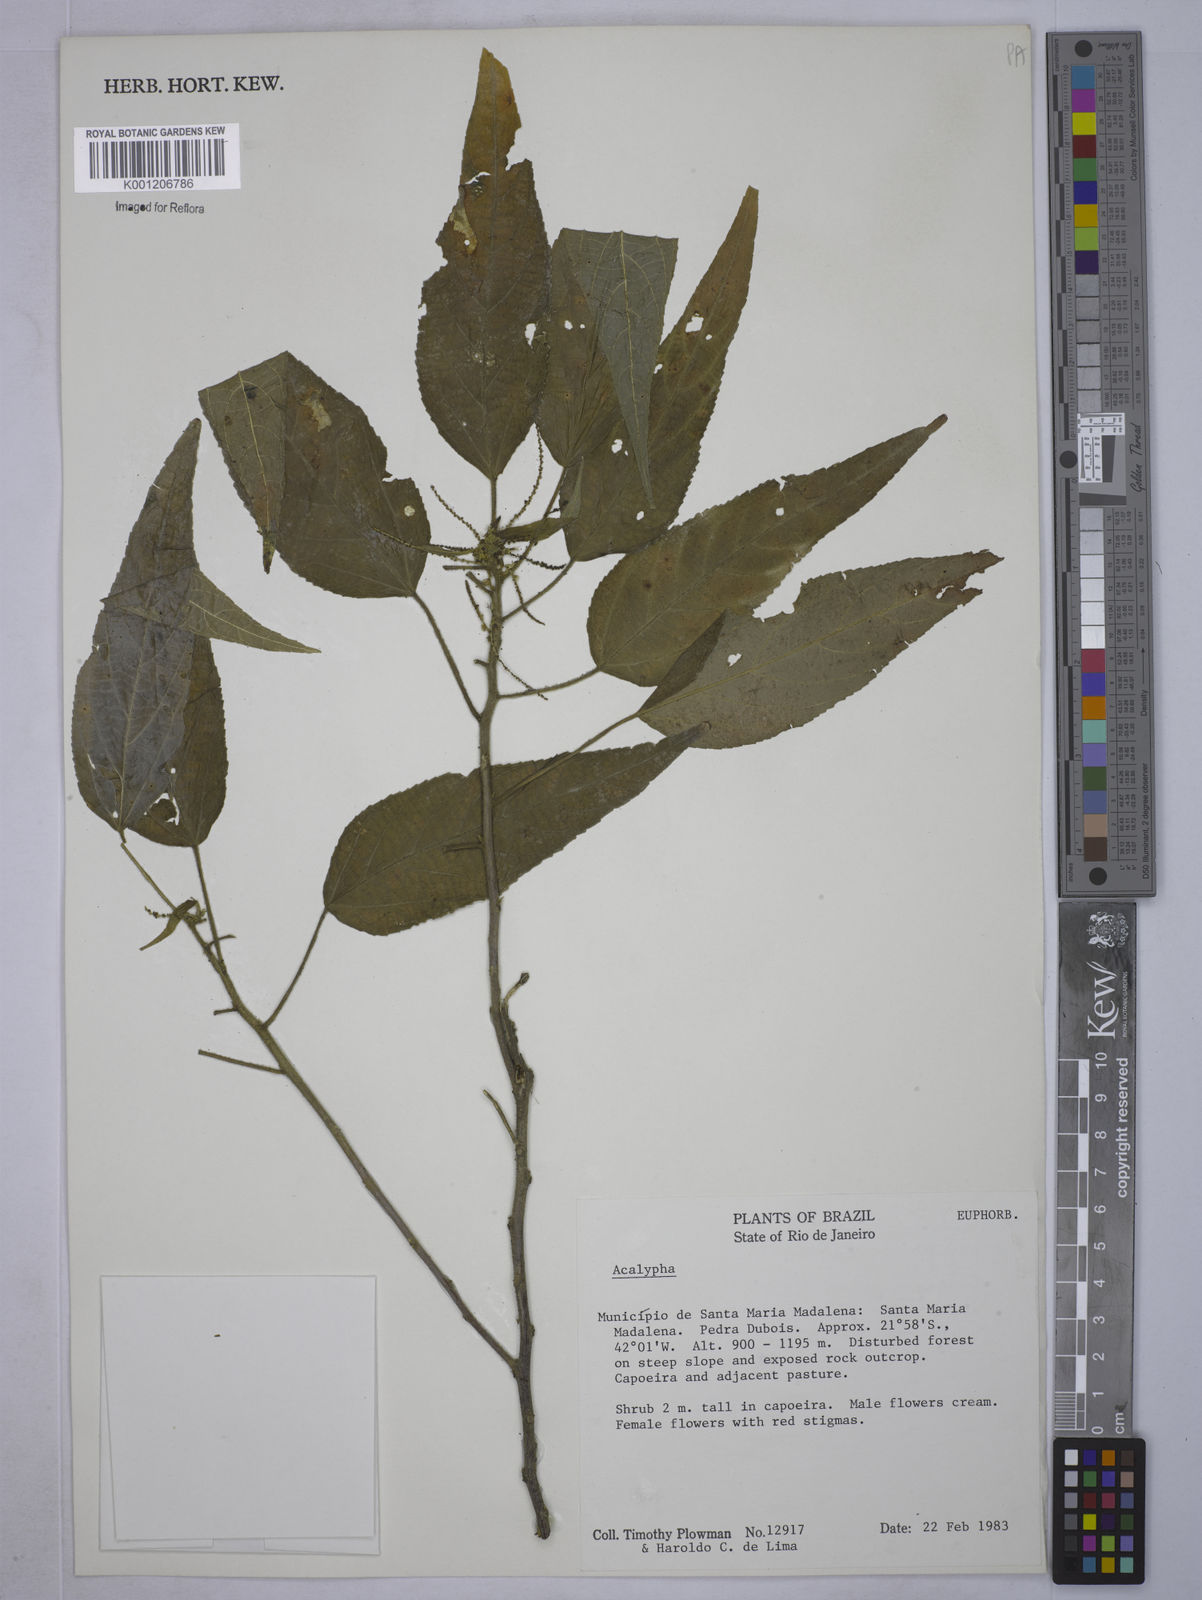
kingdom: Plantae
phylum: Tracheophyta
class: Magnoliopsida
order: Malpighiales
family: Euphorbiaceae
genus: Acalypha
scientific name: Acalypha
